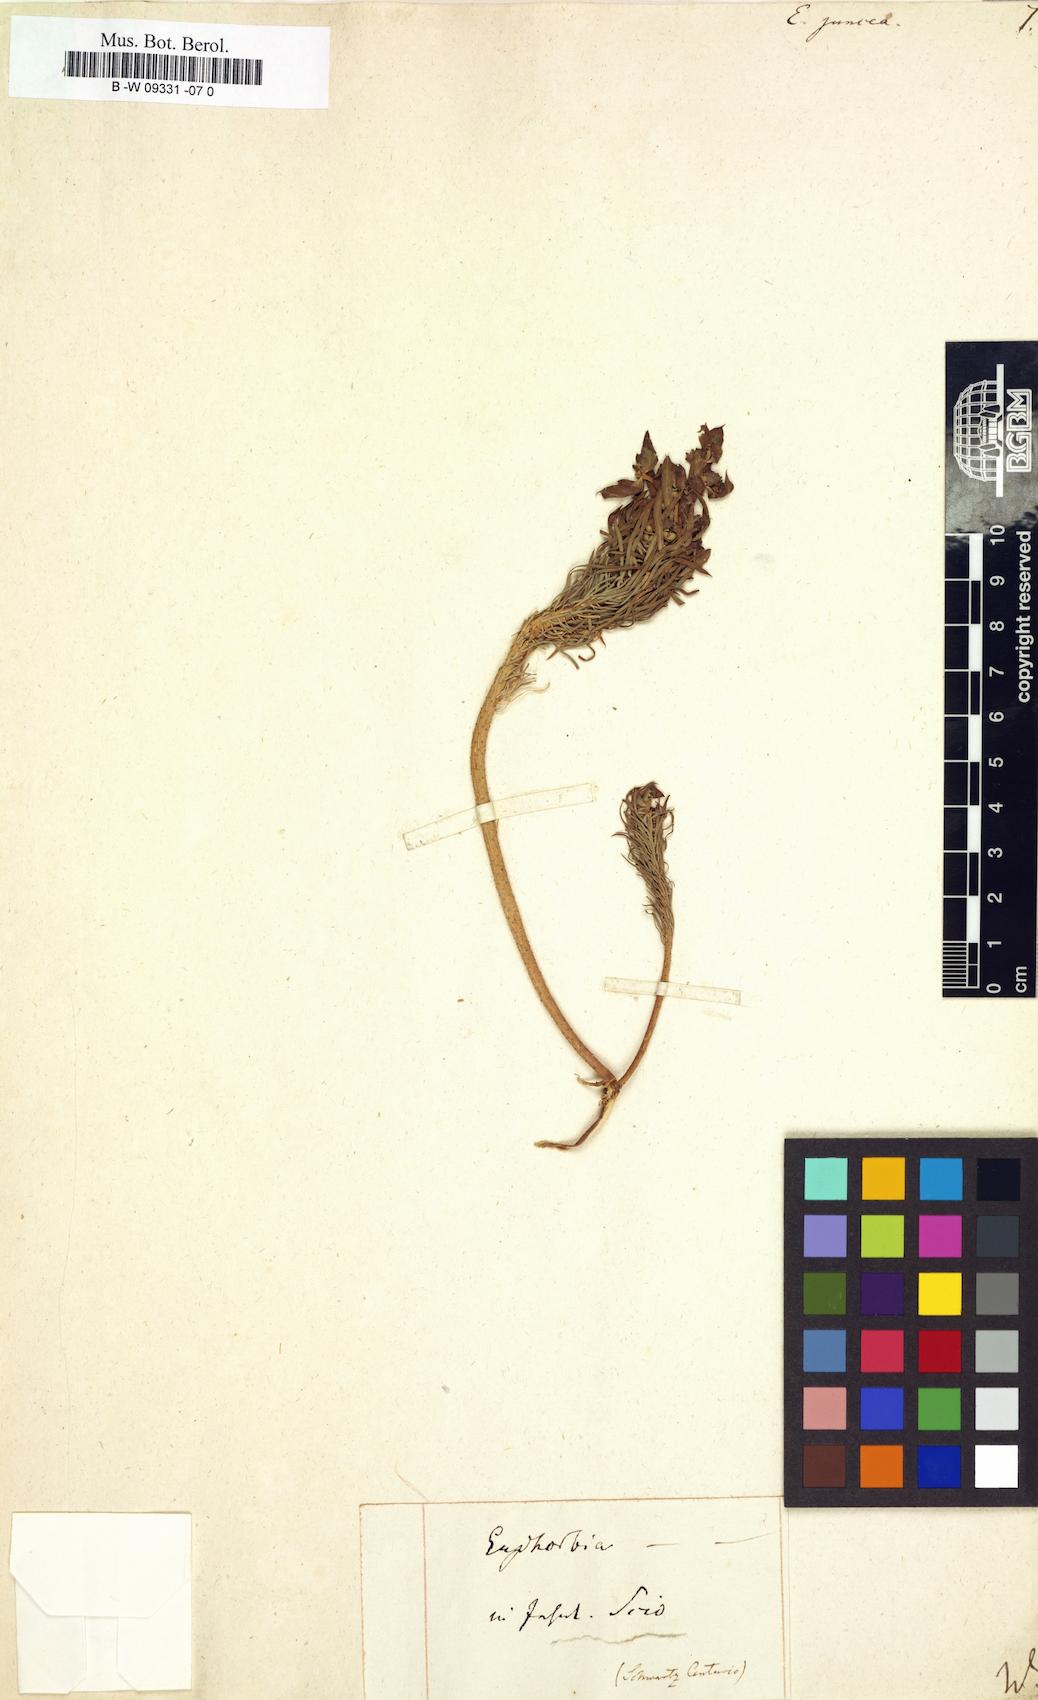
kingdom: Plantae
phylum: Tracheophyta
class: Magnoliopsida
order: Malpighiales
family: Euphorbiaceae
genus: Euphorbia
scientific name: Euphorbia aleppica
